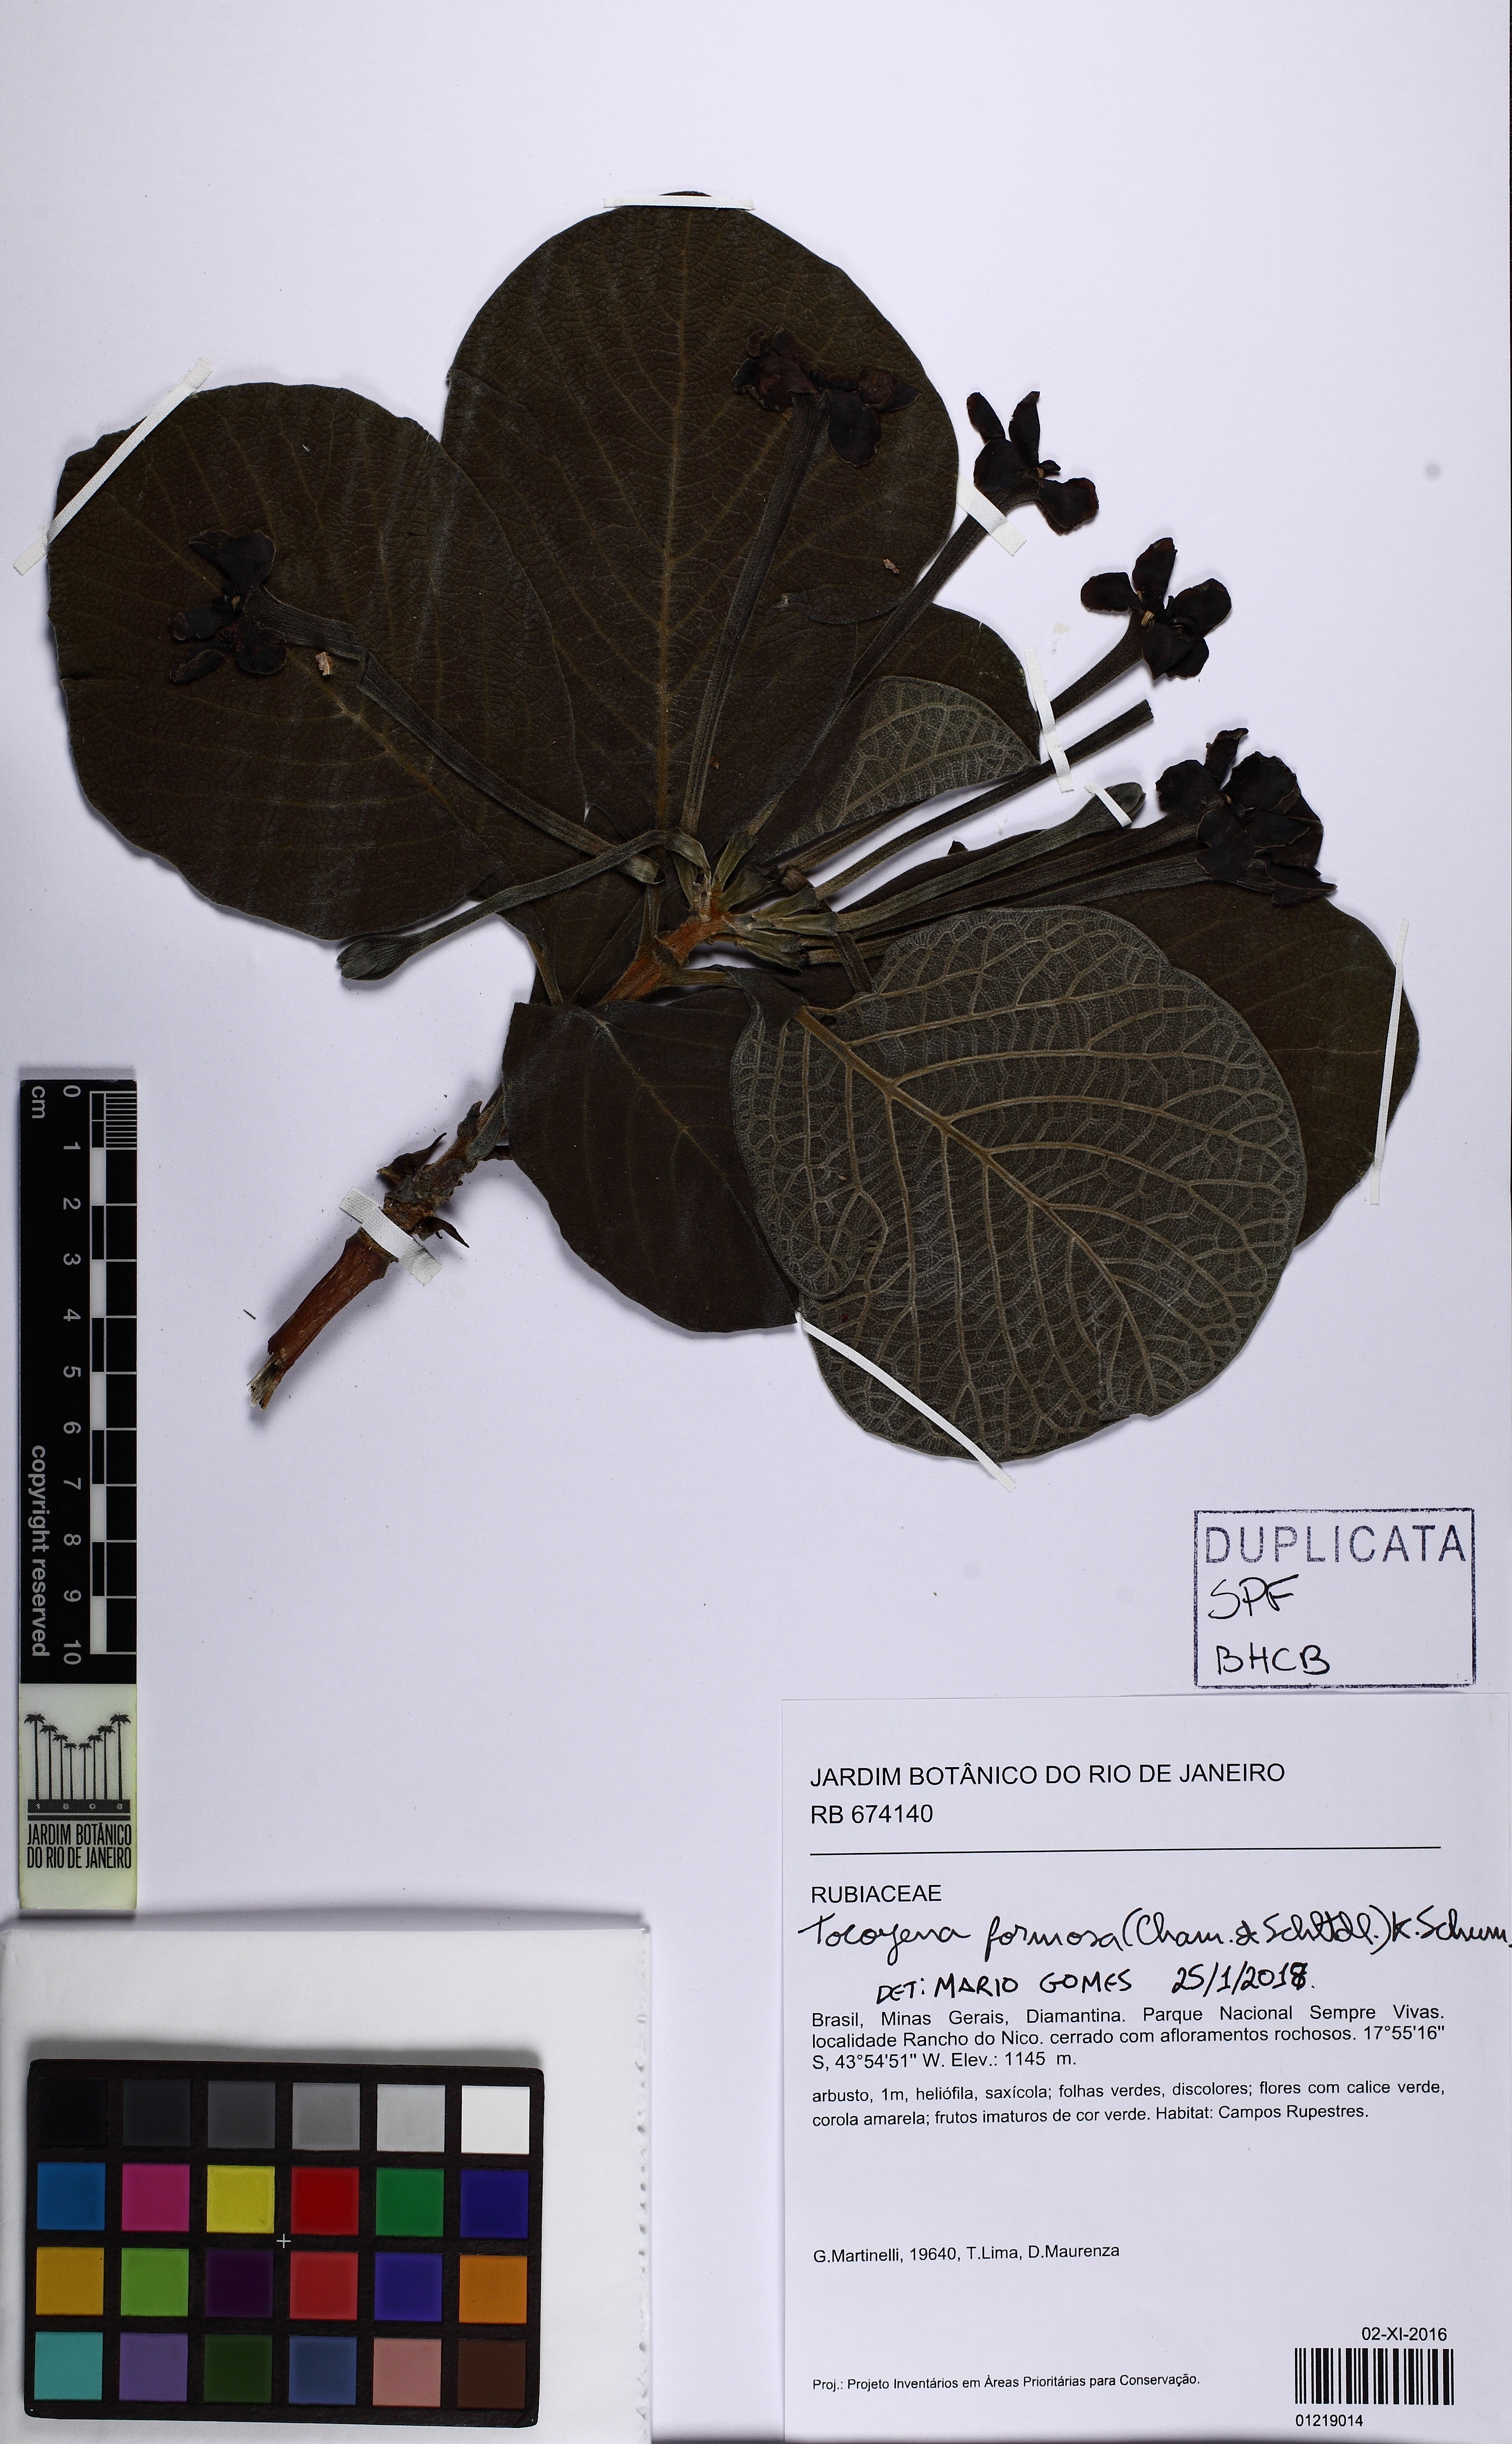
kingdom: Plantae
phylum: Tracheophyta
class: Magnoliopsida
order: Gentianales
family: Rubiaceae
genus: Tocoyena
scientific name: Tocoyena formosa
